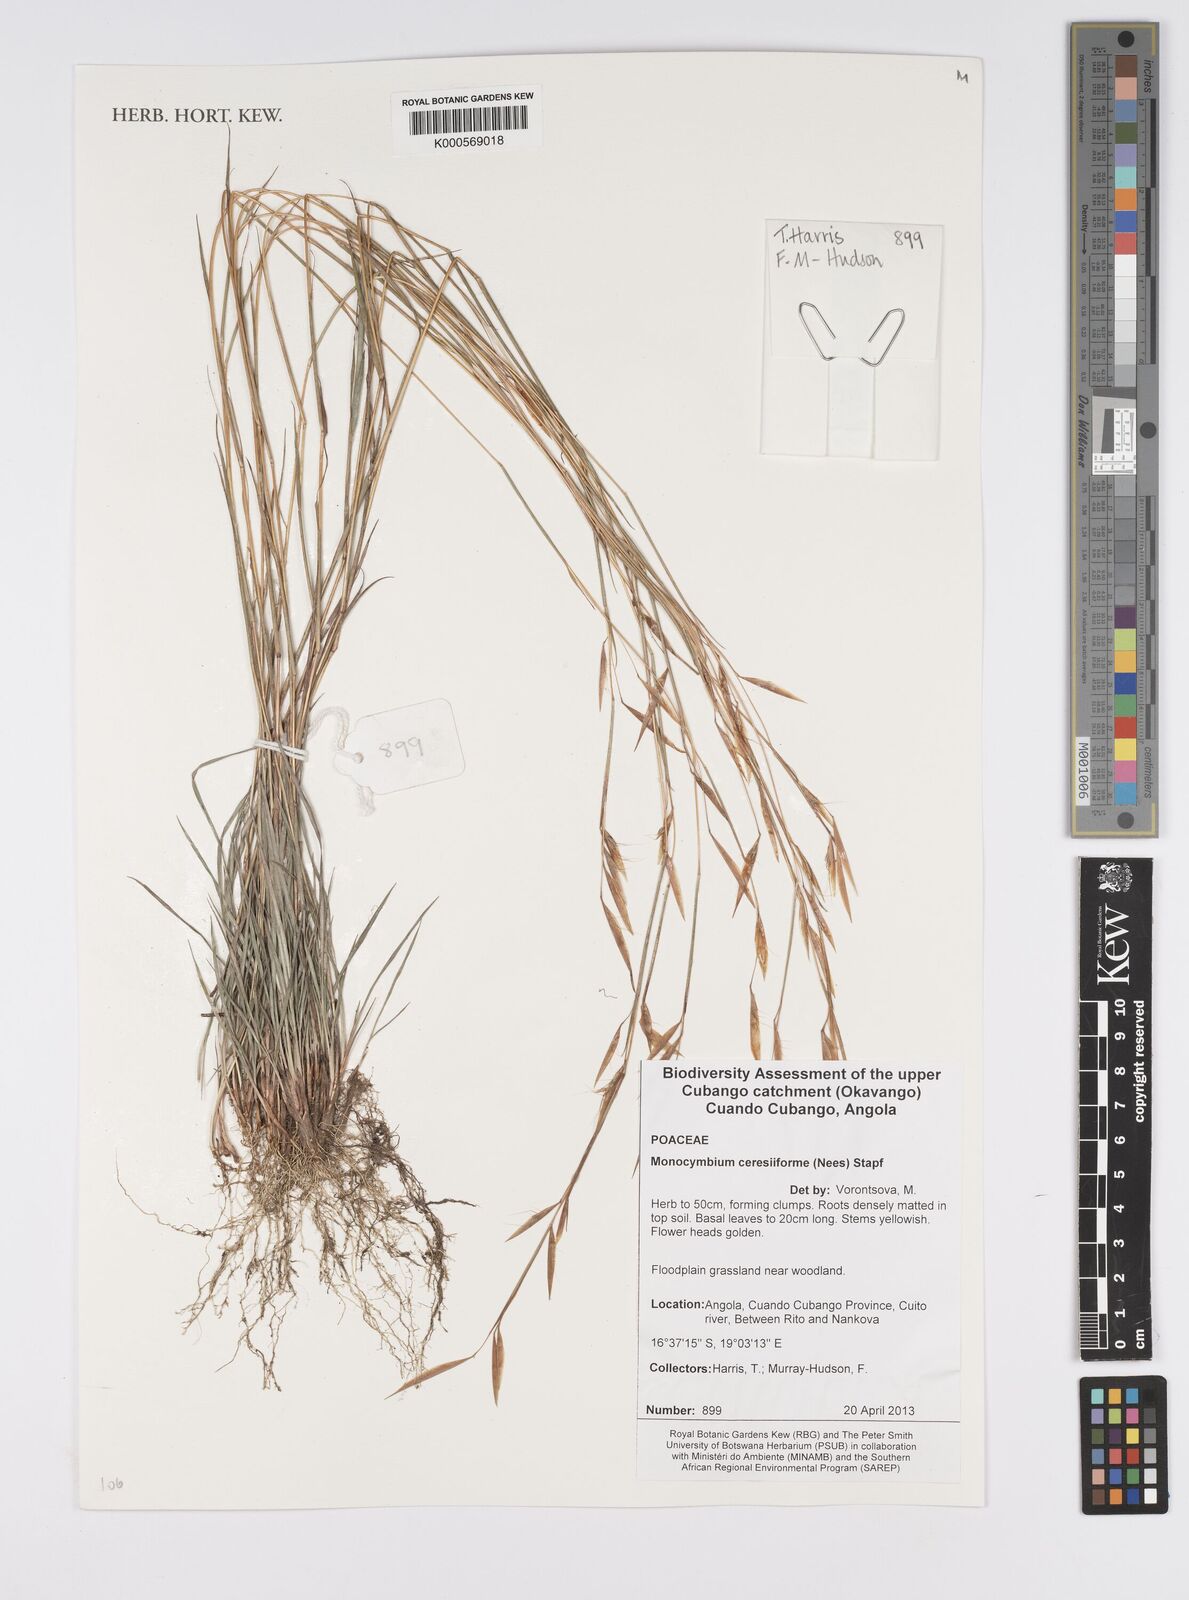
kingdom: Plantae
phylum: Tracheophyta
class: Liliopsida
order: Poales
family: Poaceae
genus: Monocymbium
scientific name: Monocymbium ceresiiforme
